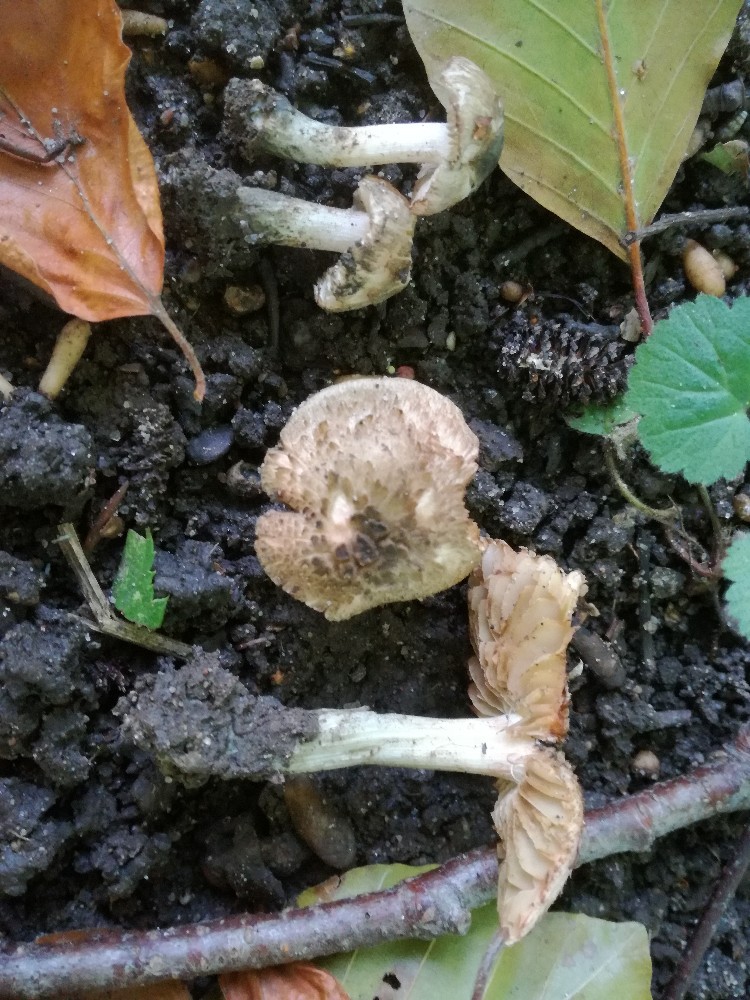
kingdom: Fungi
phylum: Basidiomycota
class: Agaricomycetes
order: Agaricales
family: Inocybaceae
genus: Inocybe
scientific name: Inocybe haemacta
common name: blågrøn trævlhat
